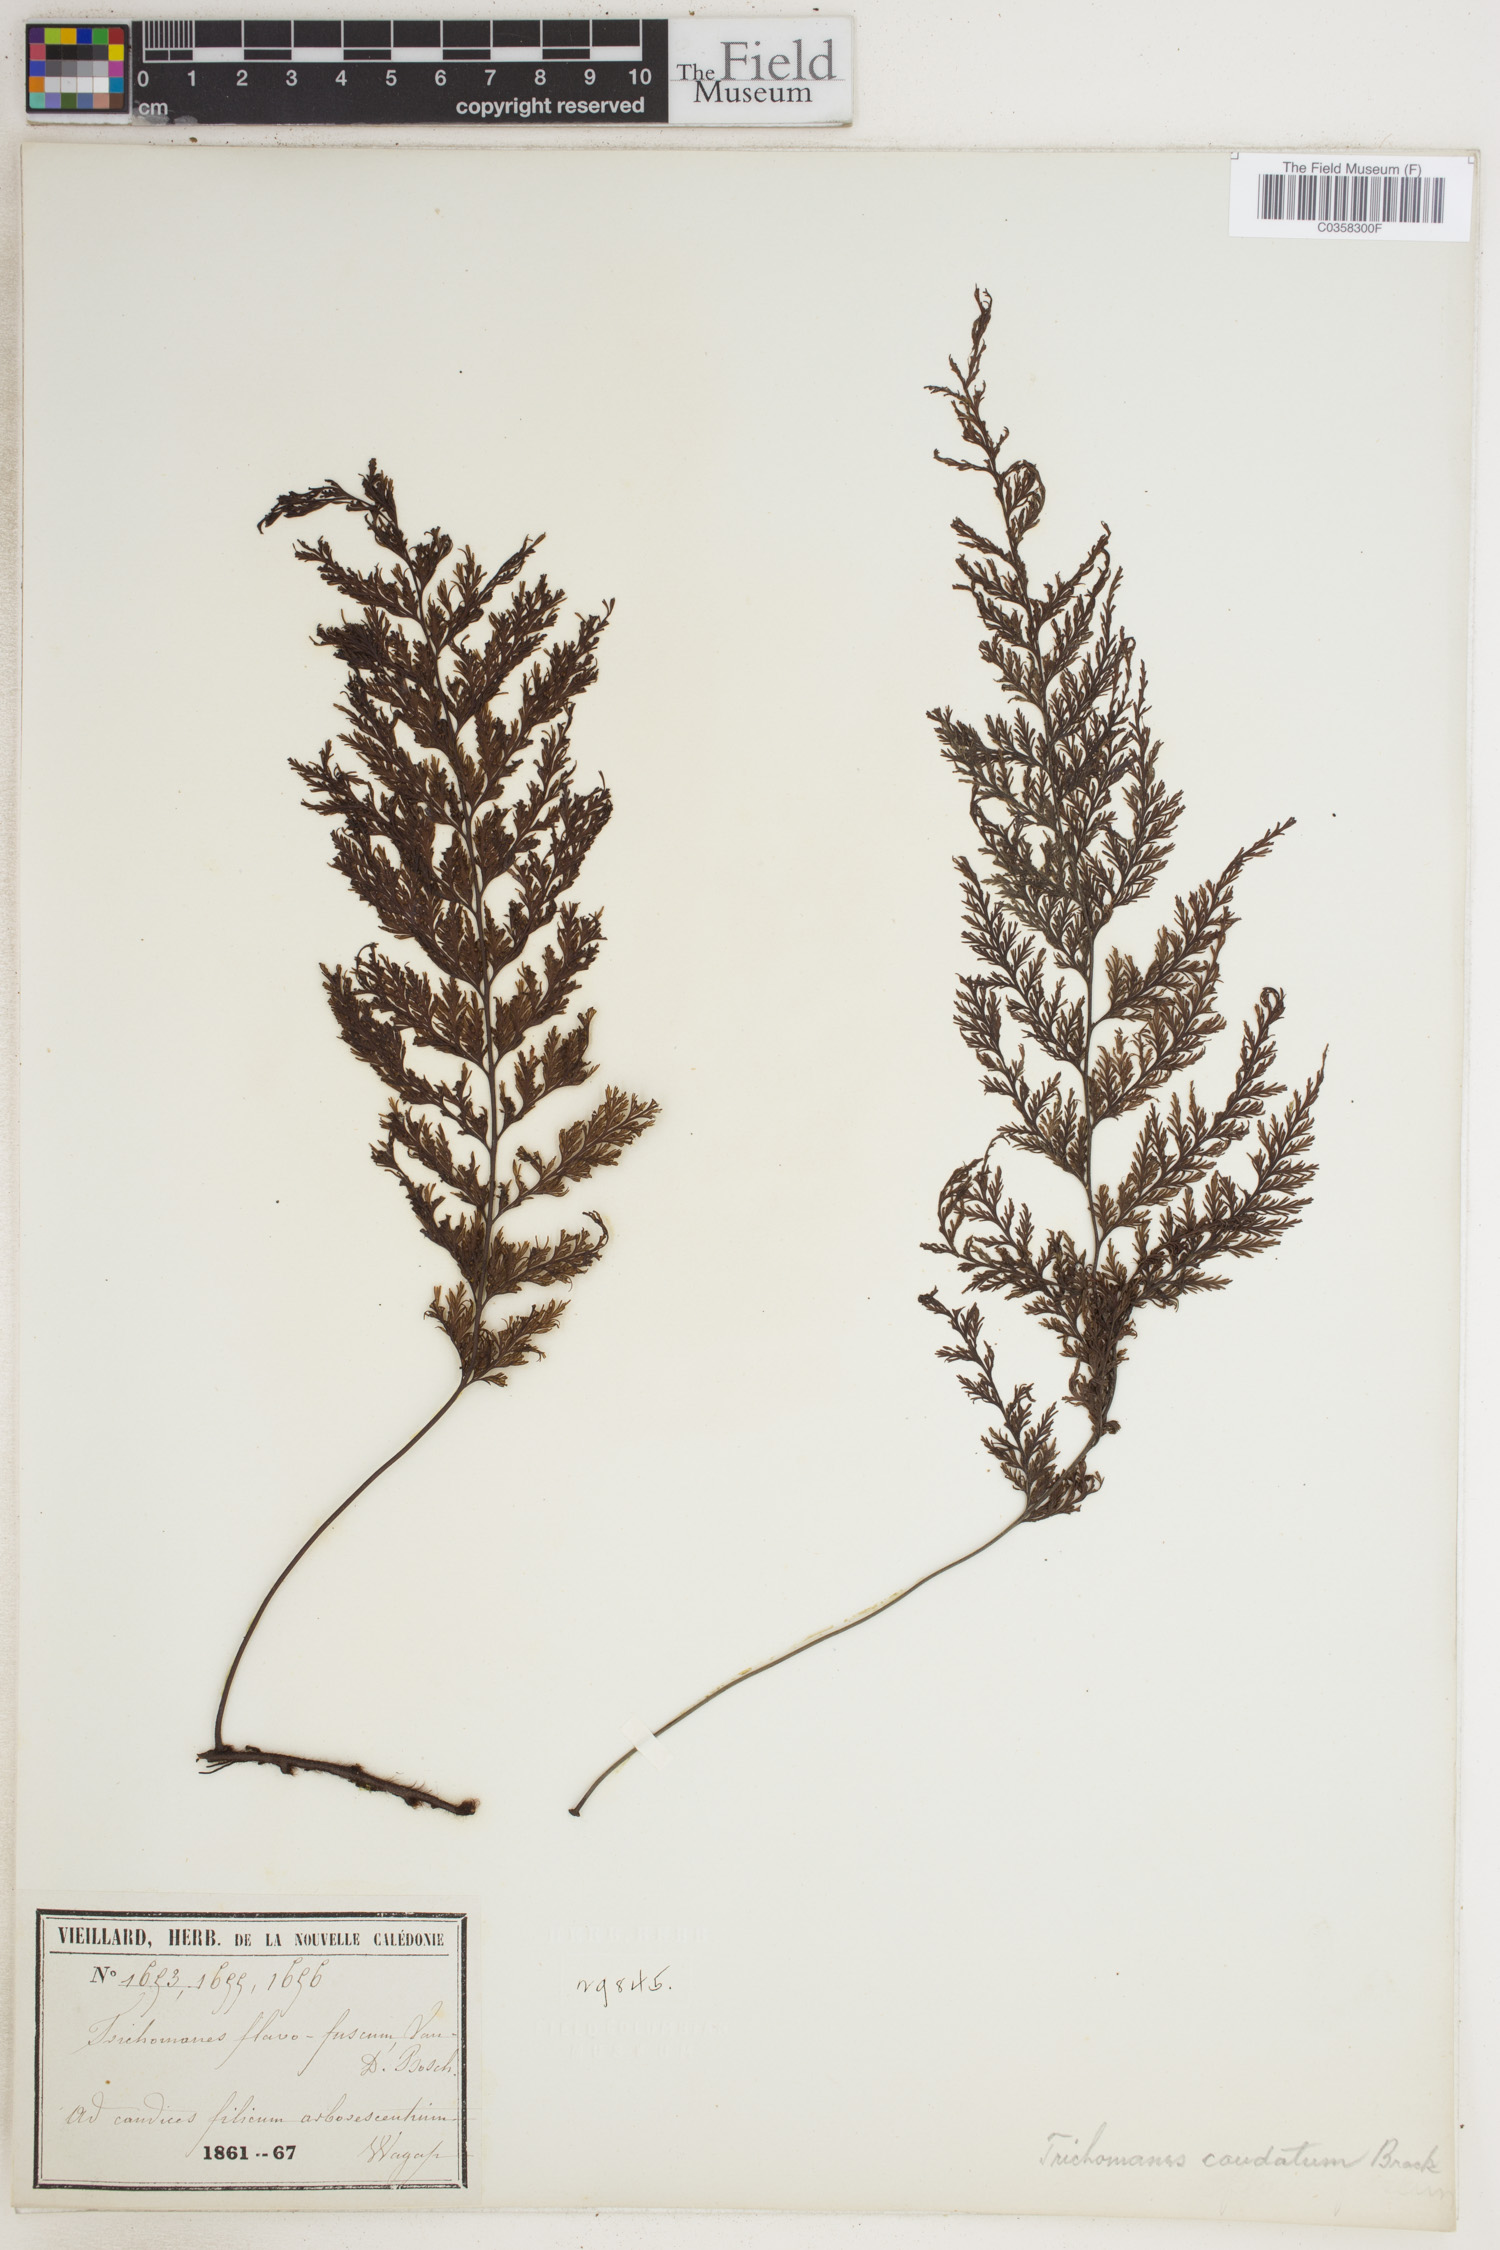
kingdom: Plantae
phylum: Tracheophyta
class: Polypodiopsida
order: Hymenophyllales
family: Hymenophyllaceae
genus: Abrodictyum
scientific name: Abrodictyum caudatum
